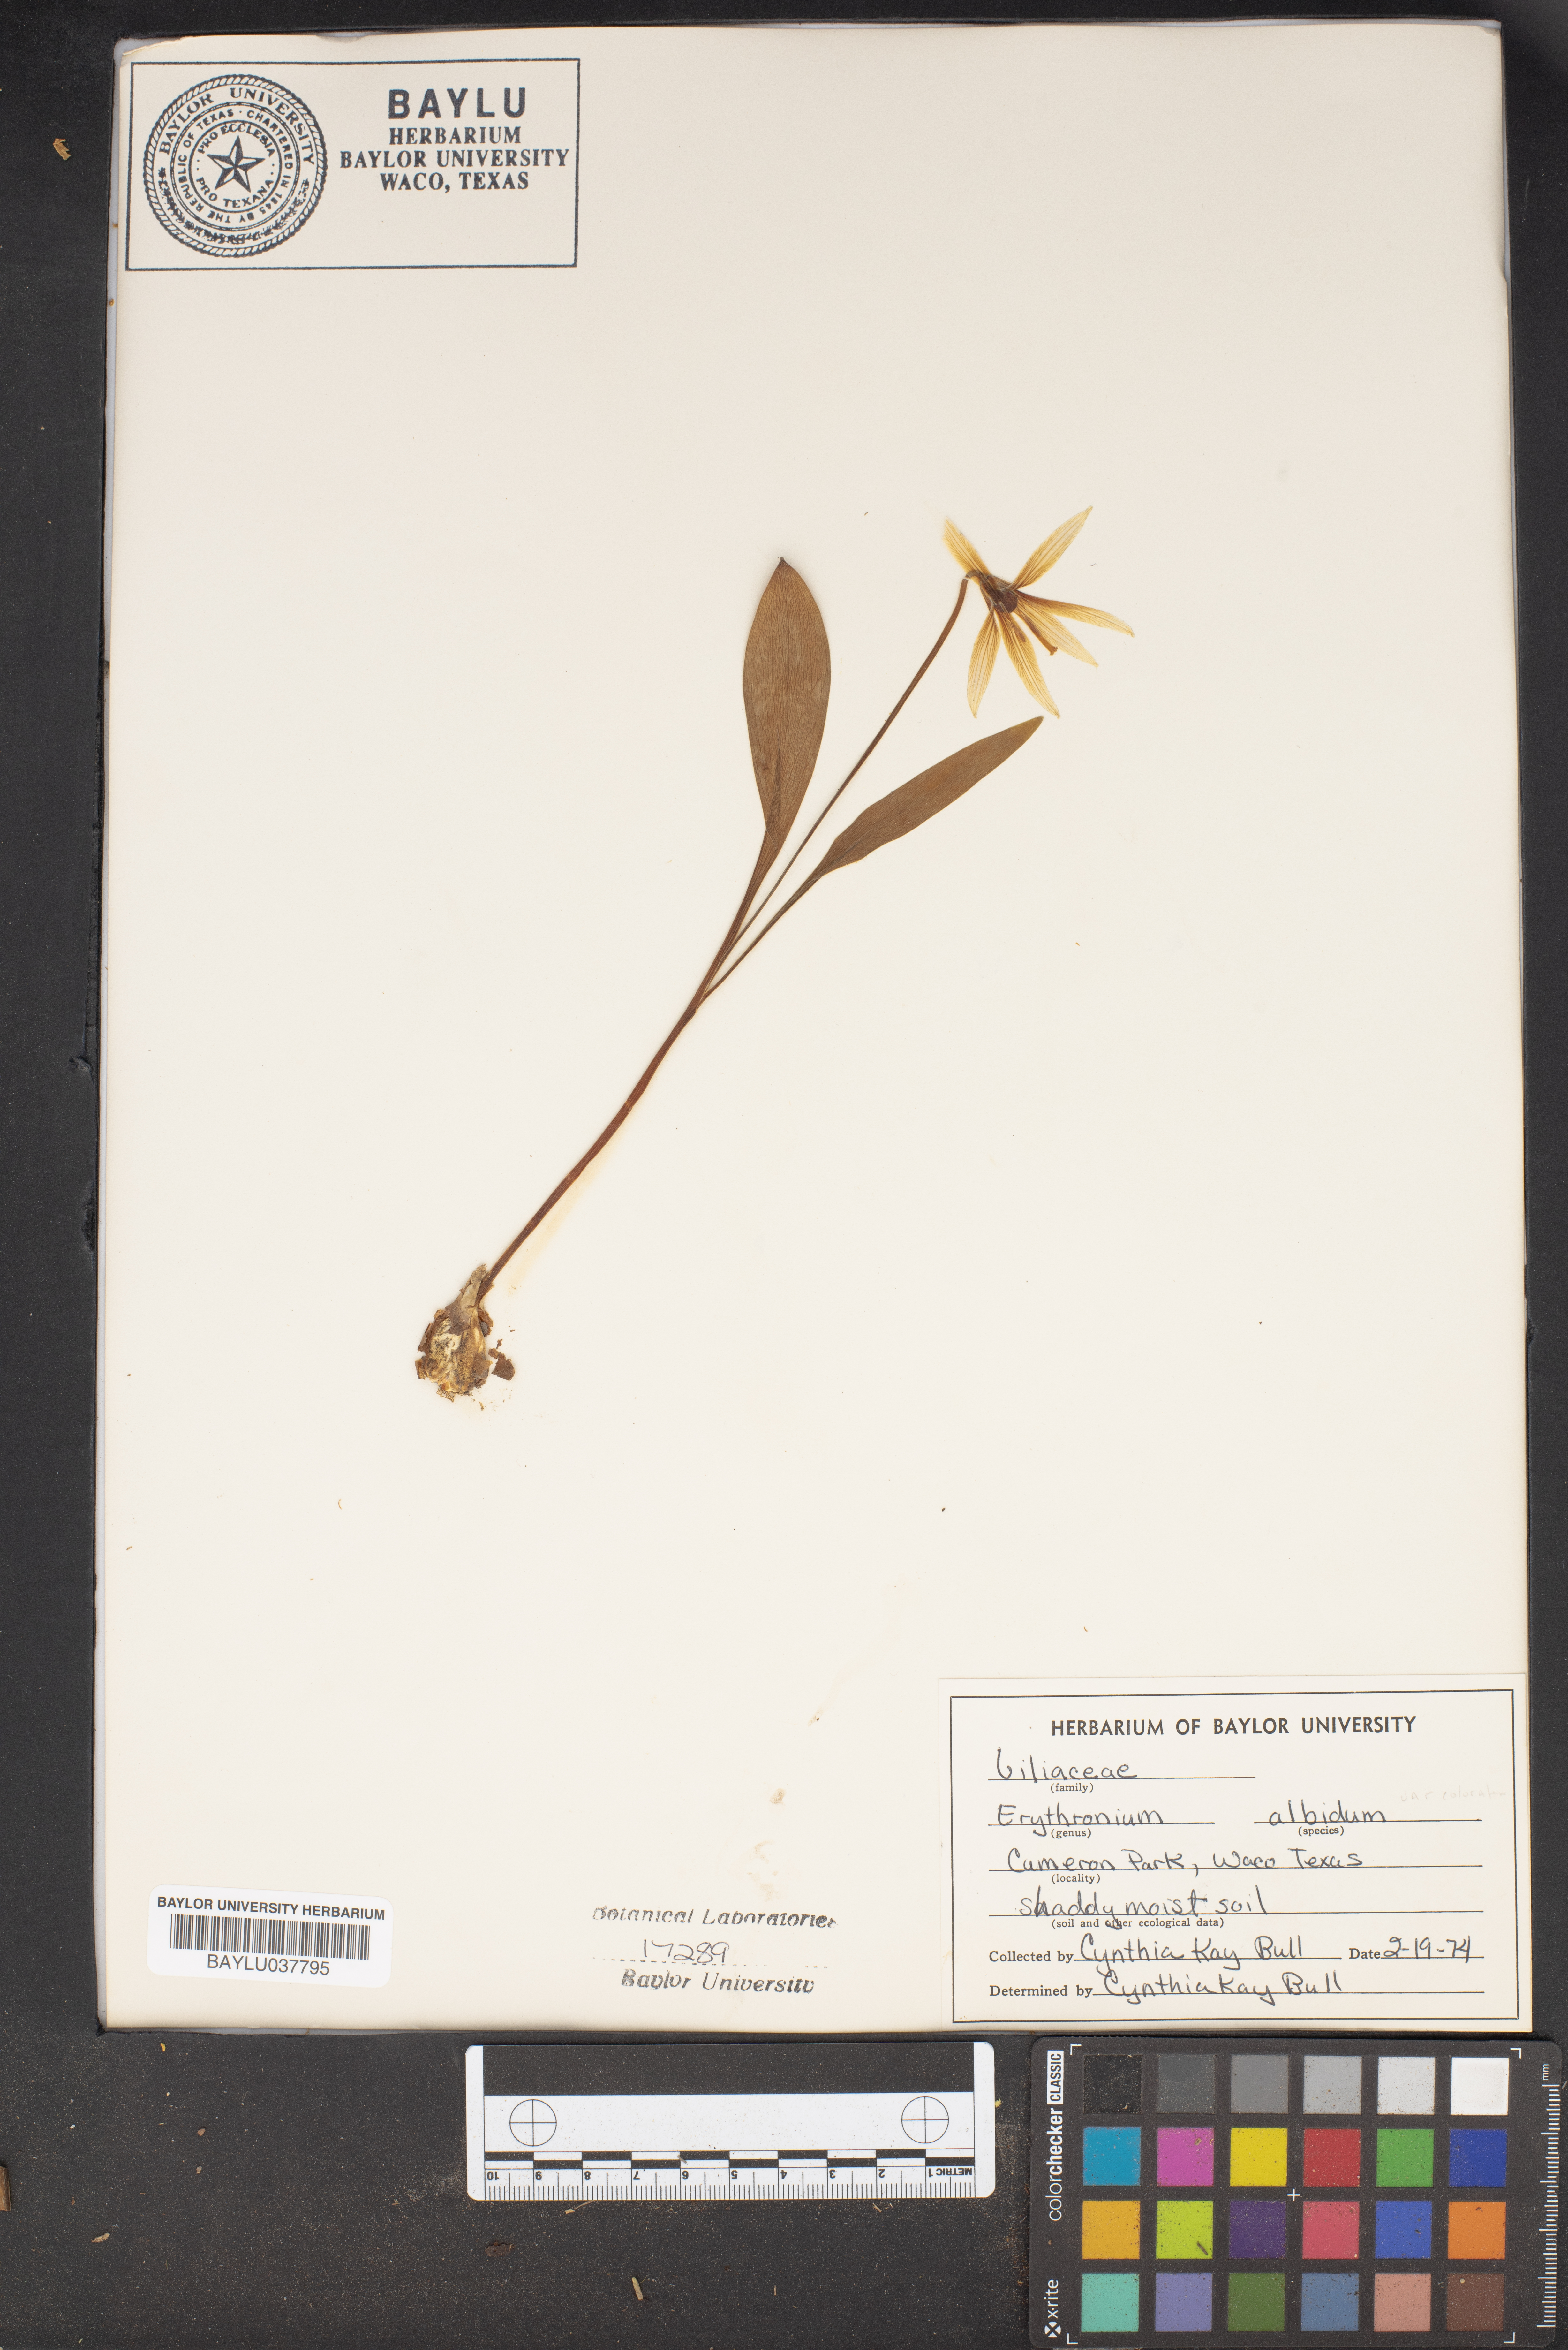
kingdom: Plantae
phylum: Tracheophyta
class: Liliopsida
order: Liliales
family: Liliaceae
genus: Erythronium
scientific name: Erythronium albidum
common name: White trout-lily
